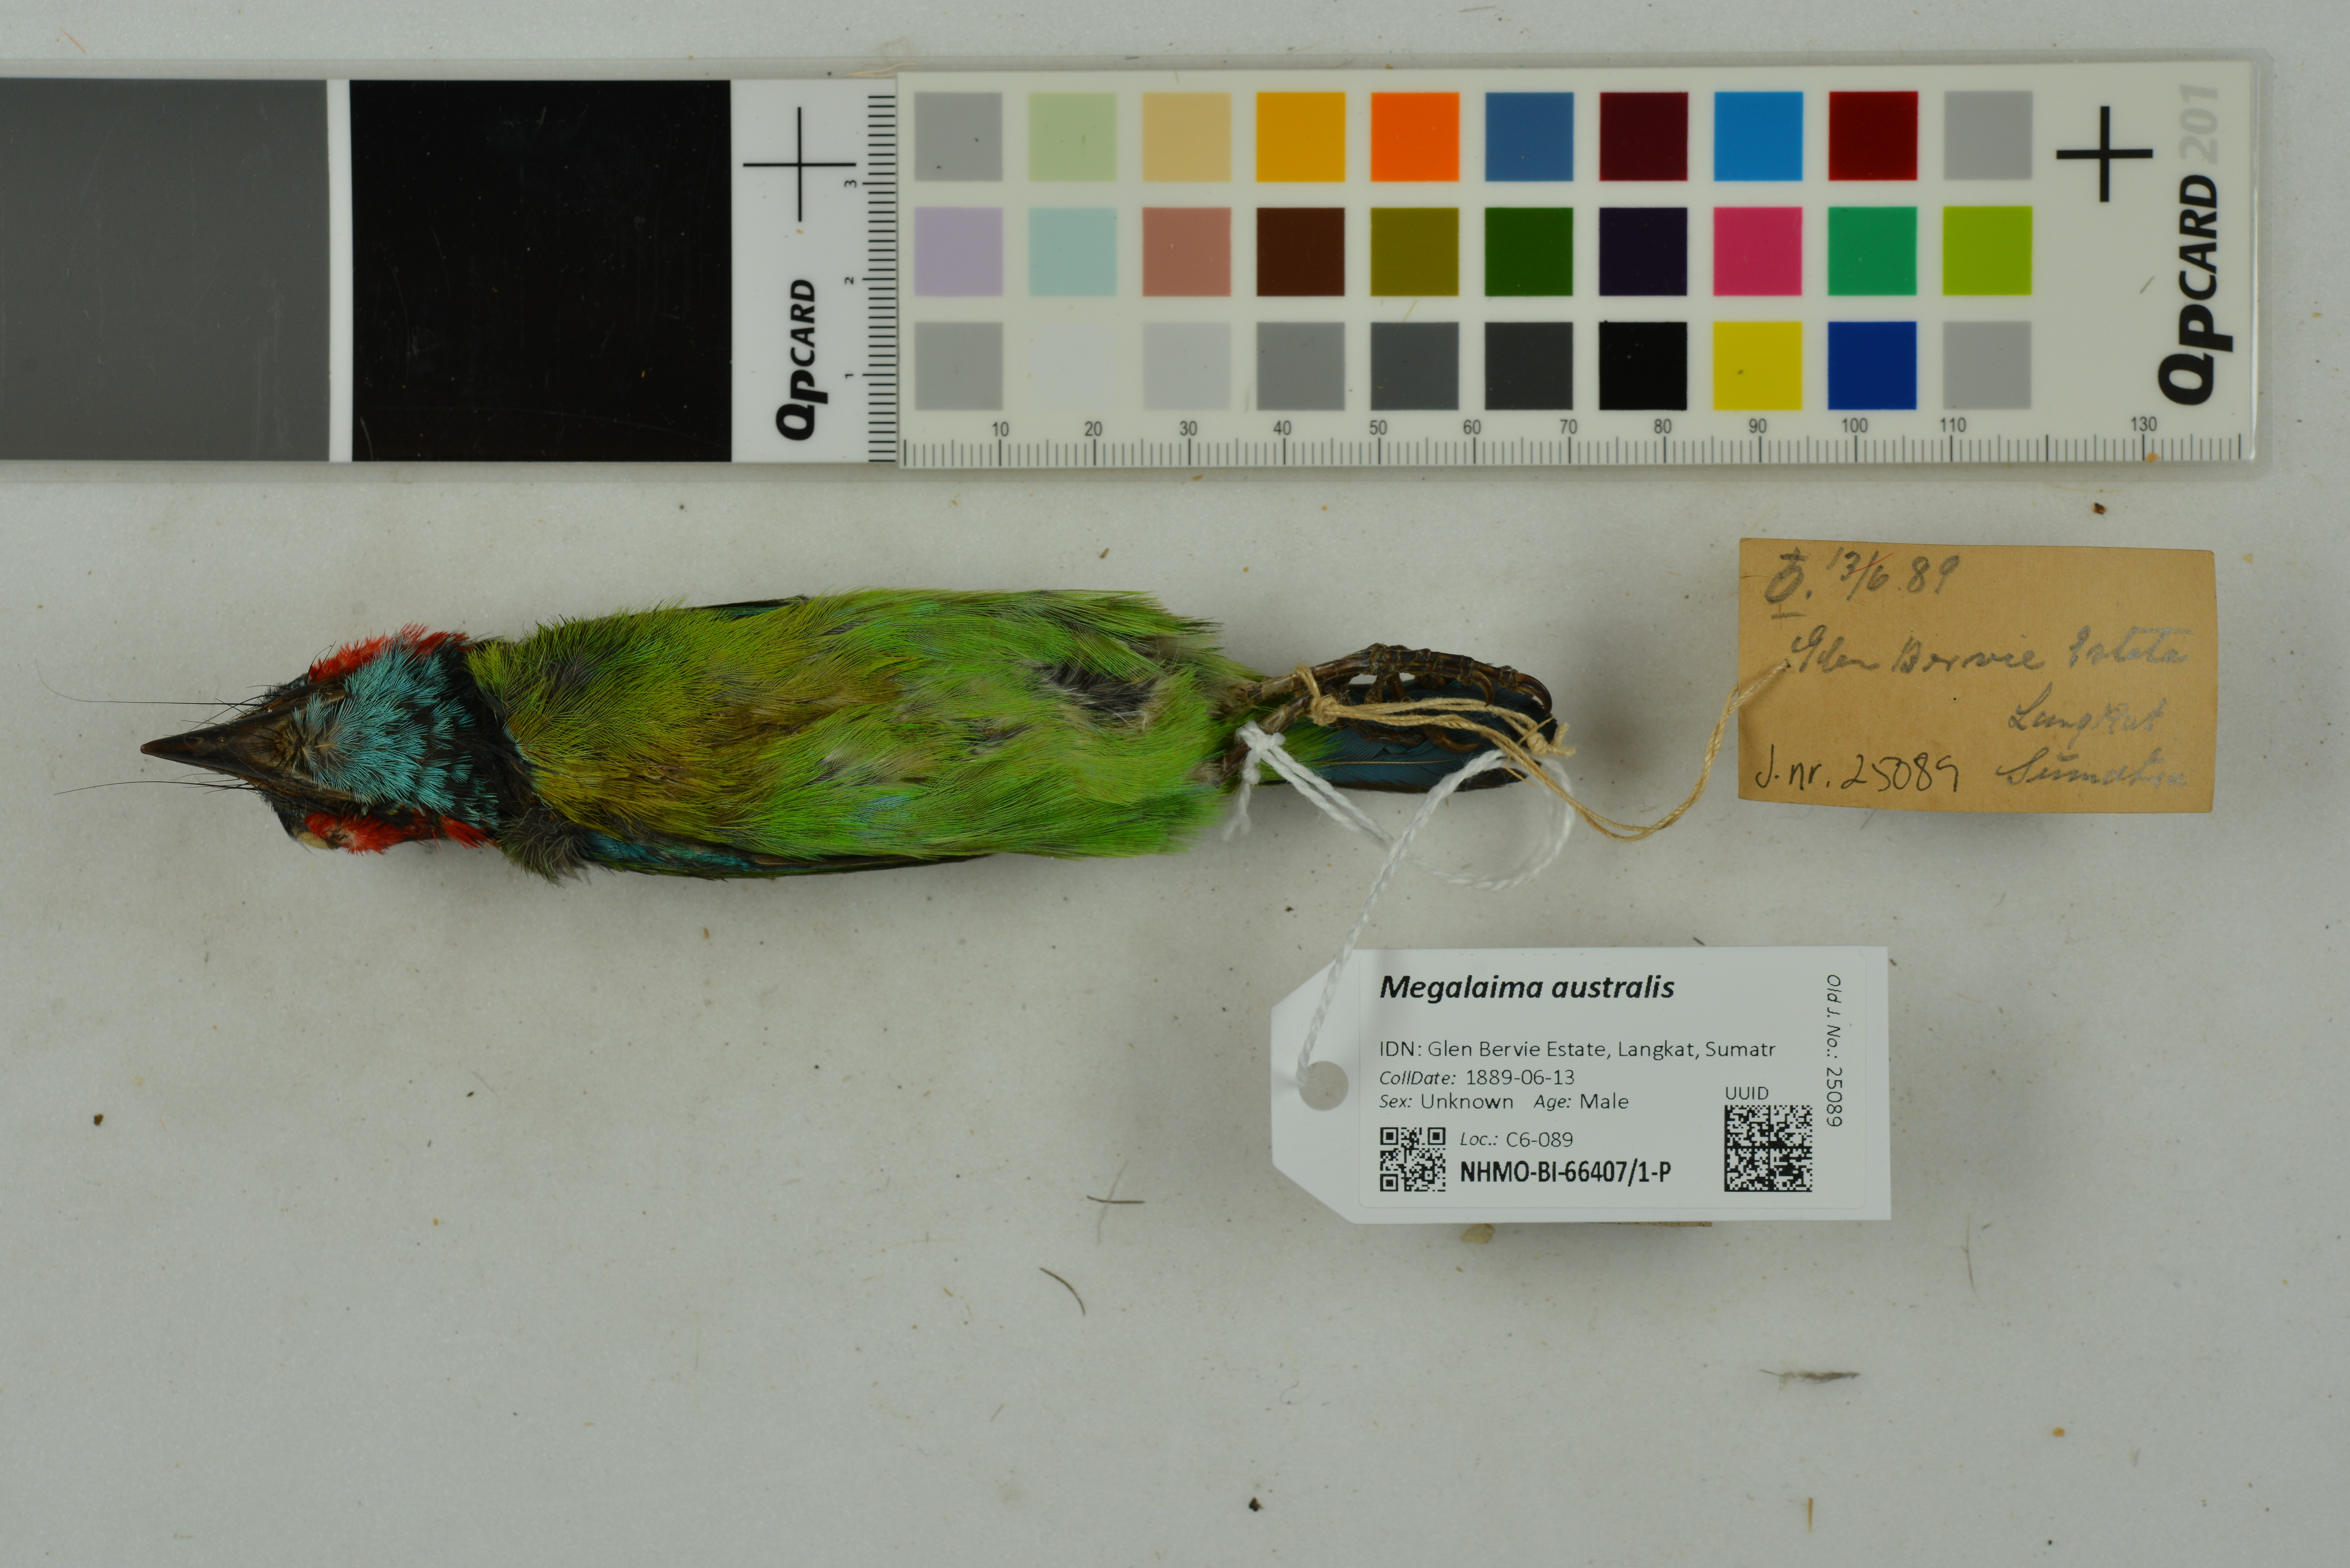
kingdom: Animalia
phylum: Chordata
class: Aves
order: Piciformes
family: Megalaimidae
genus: Psilopogon
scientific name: Psilopogon australis
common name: Yellow-eared barbet
